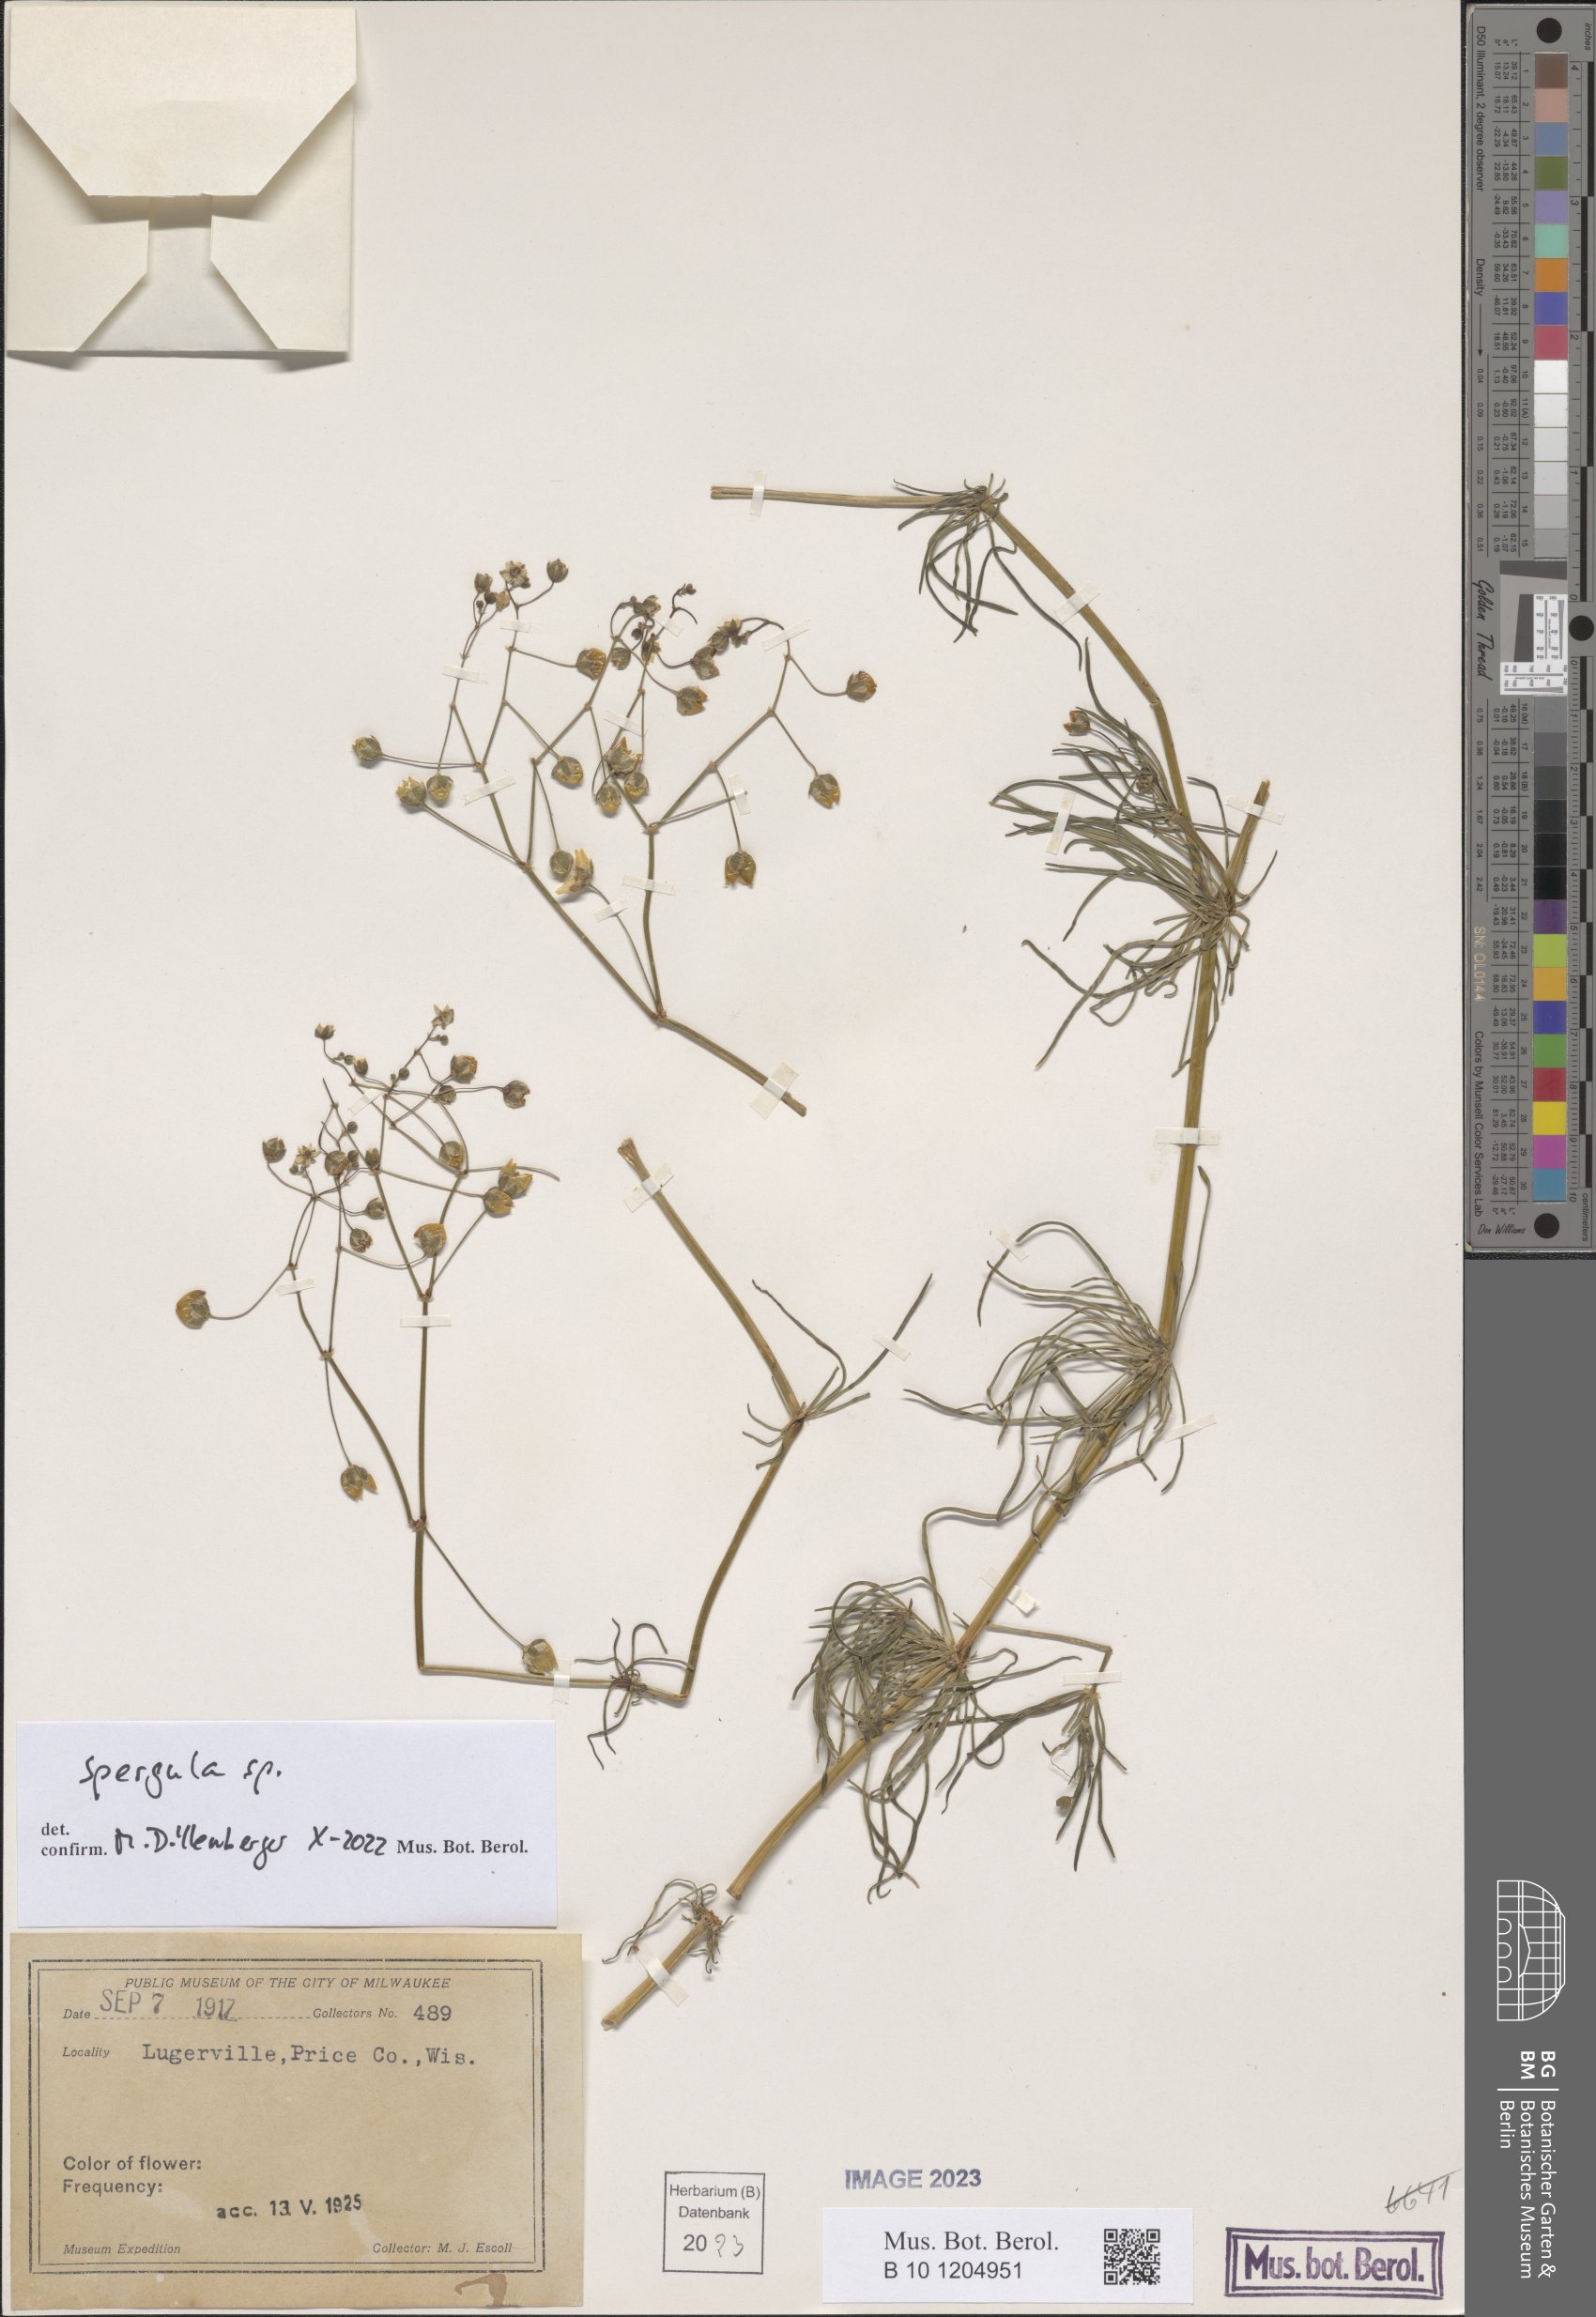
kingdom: Plantae
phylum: Tracheophyta
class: Magnoliopsida
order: Caryophyllales
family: Caryophyllaceae
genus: Spergula
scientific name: Spergula
